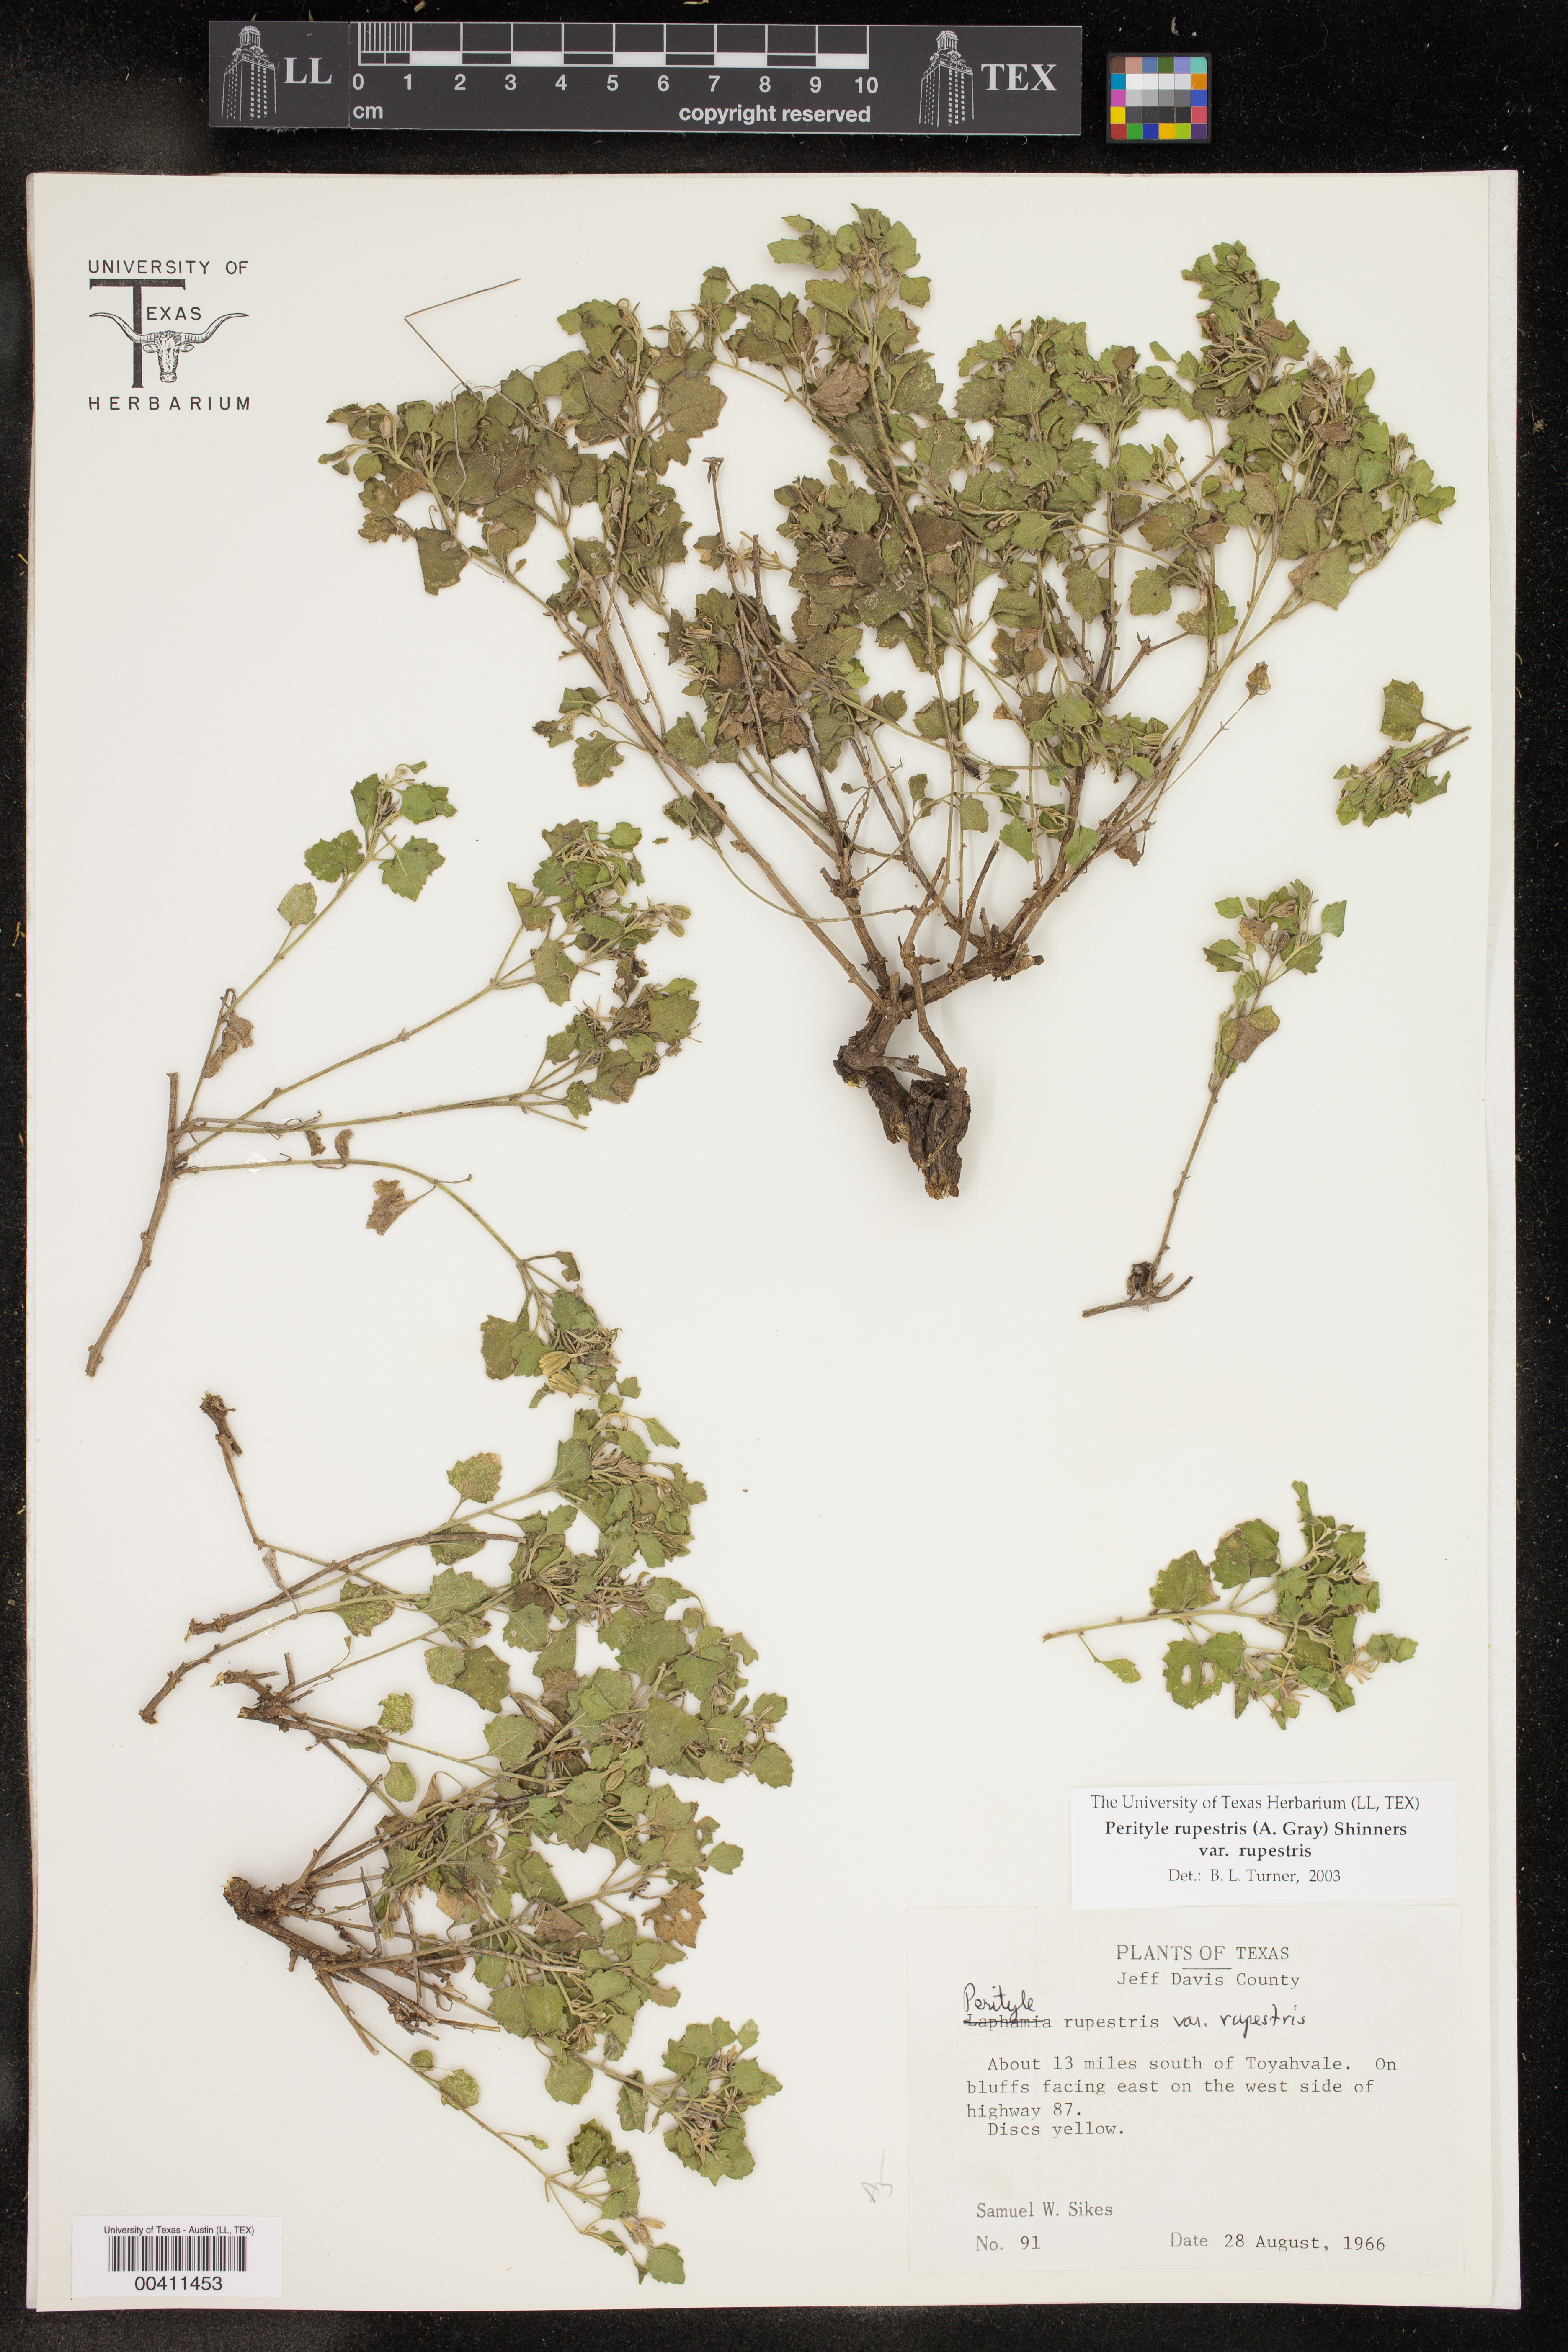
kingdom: Plantae
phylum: Tracheophyta
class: Magnoliopsida
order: Asterales
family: Asteraceae
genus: Laphamia
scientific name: Laphamia rupestris
